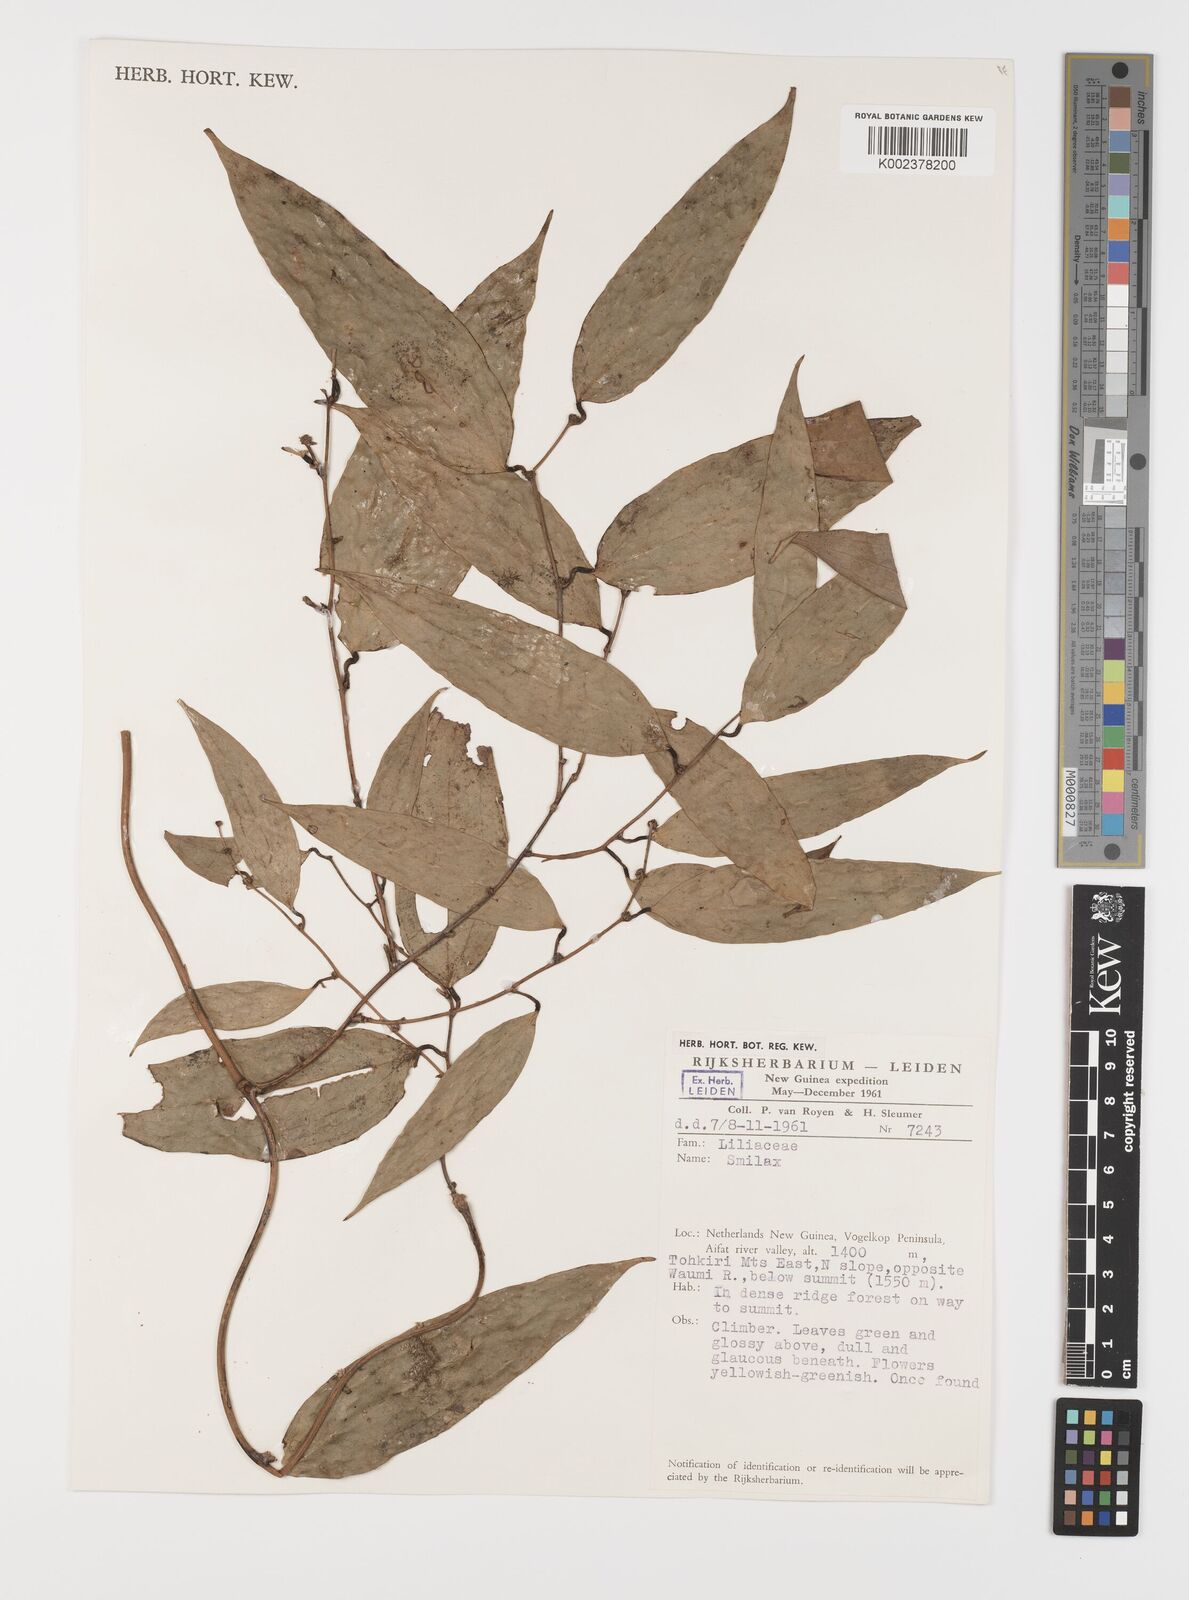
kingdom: Plantae
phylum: Tracheophyta
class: Liliopsida
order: Liliales
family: Smilacaceae
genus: Smilax
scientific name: Smilax
